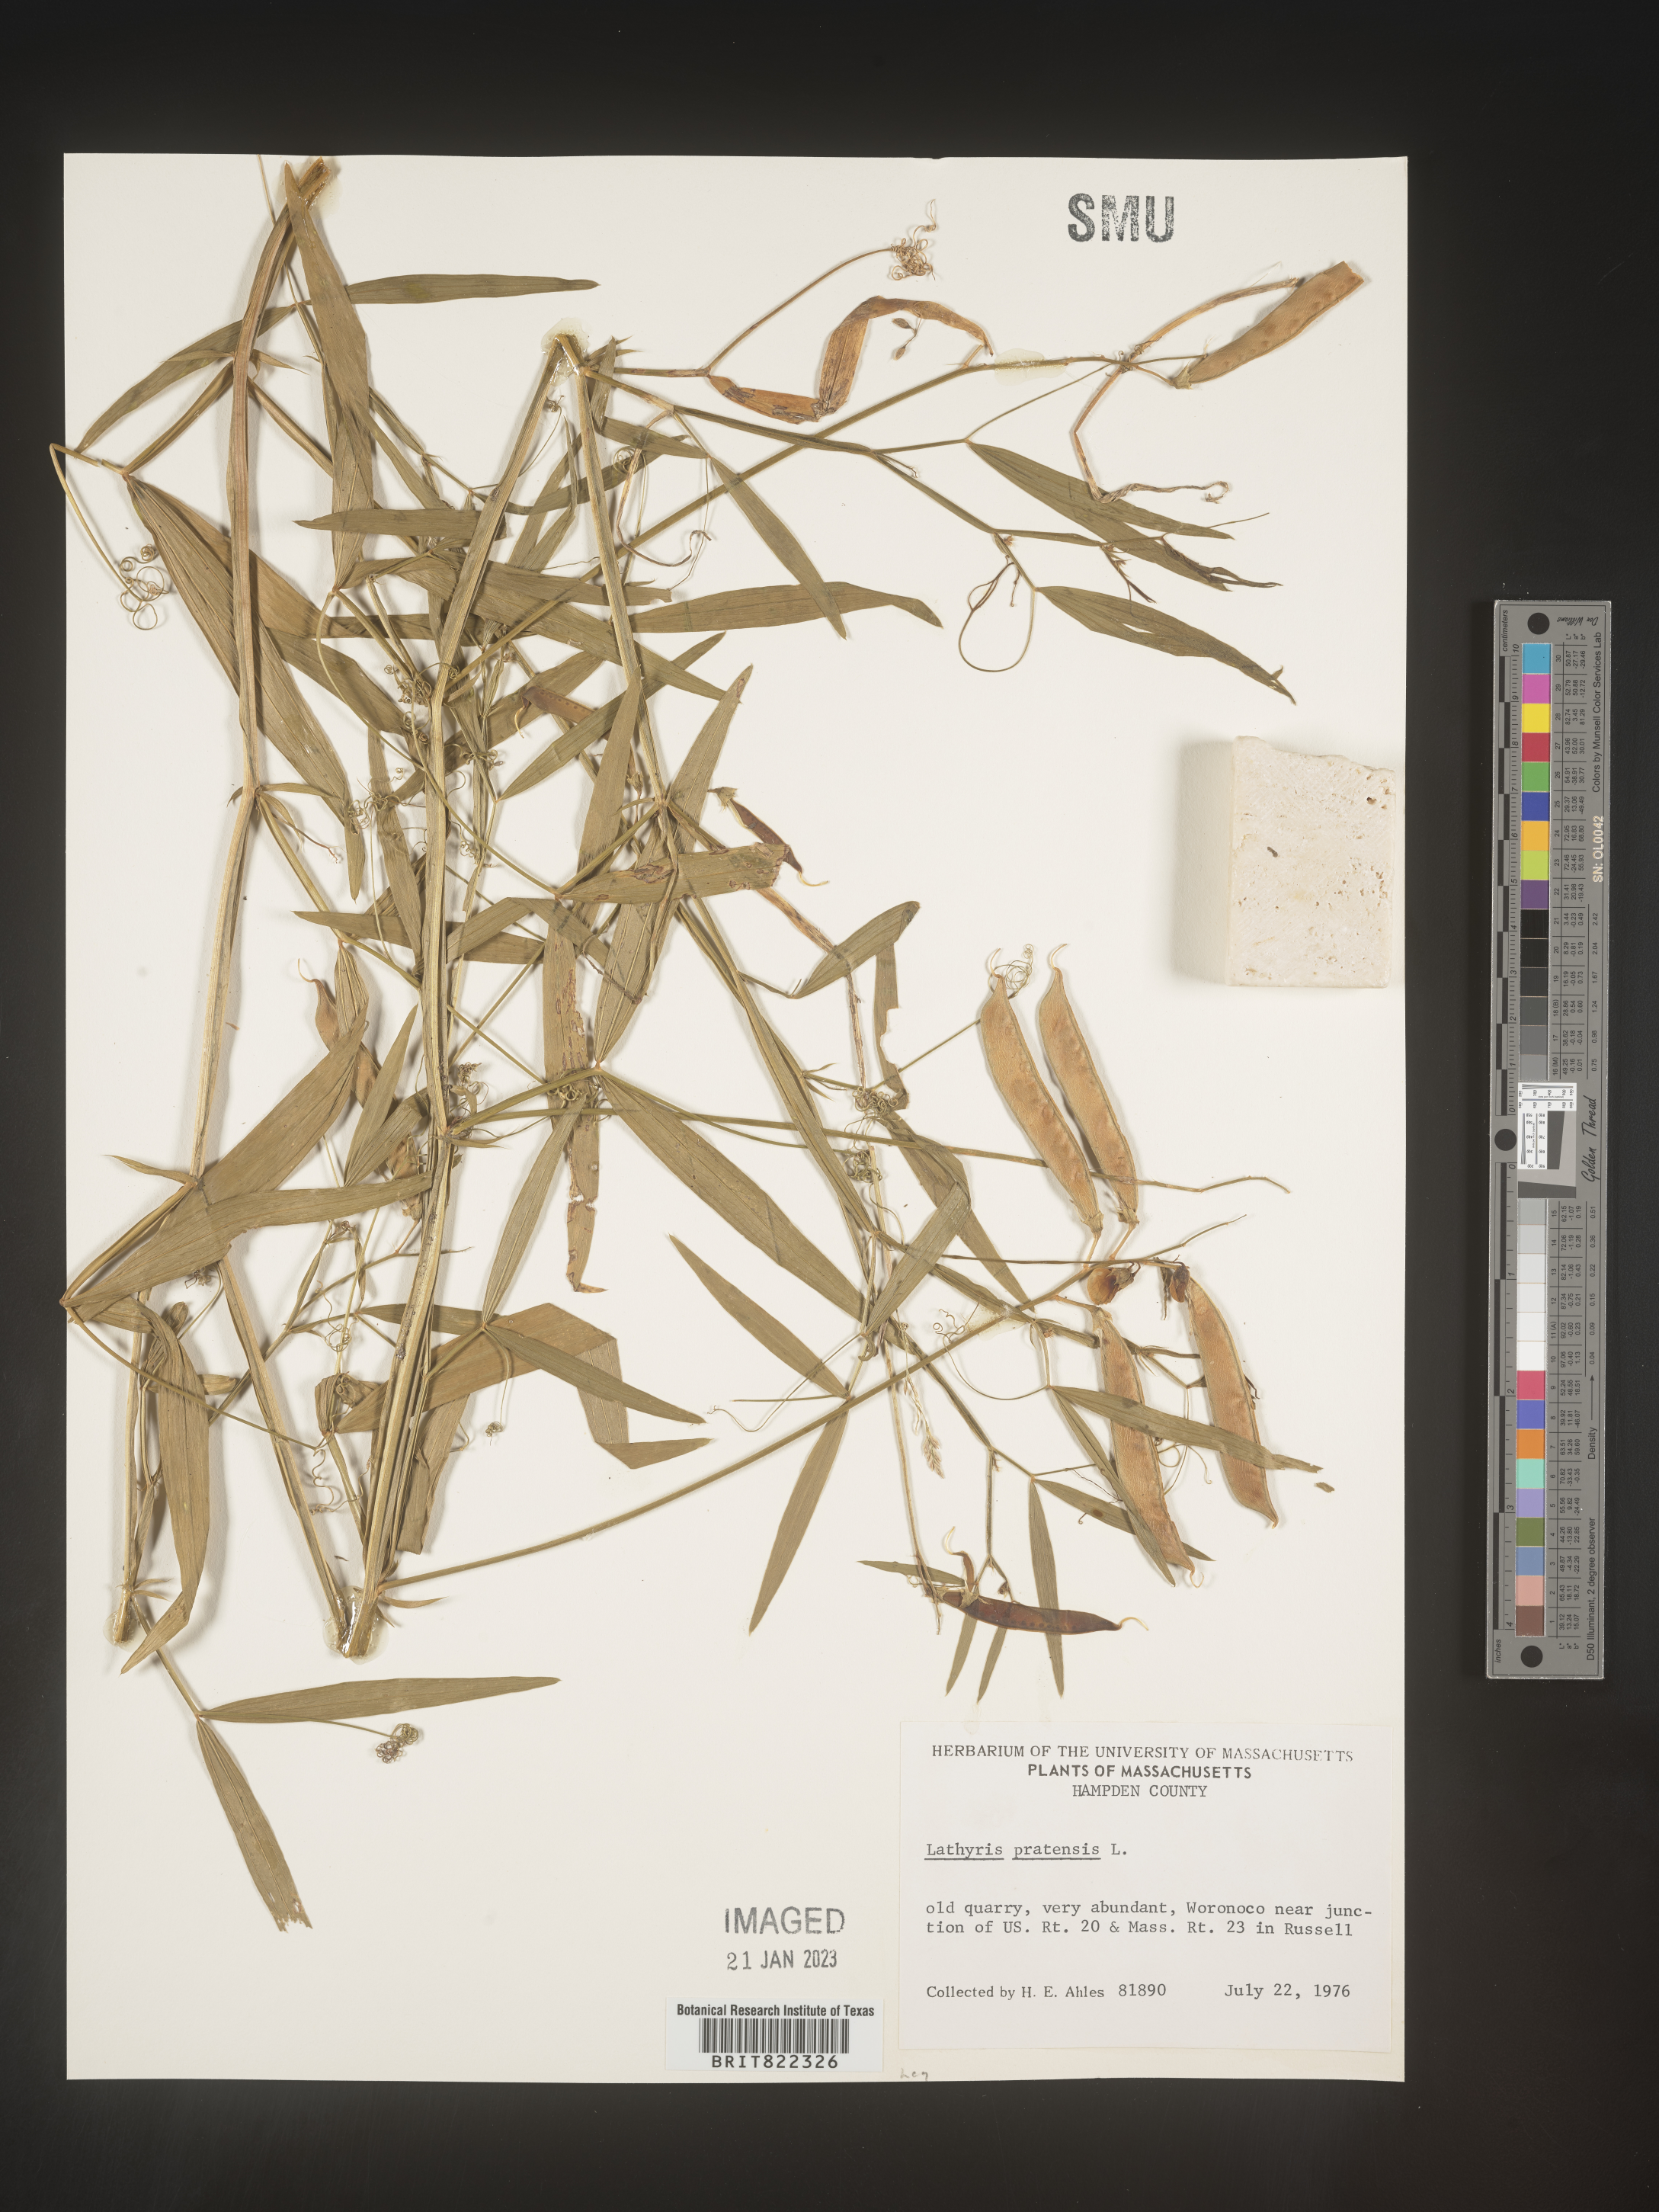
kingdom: Plantae
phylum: Tracheophyta
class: Magnoliopsida
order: Fabales
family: Fabaceae
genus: Lathyrus
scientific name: Lathyrus
